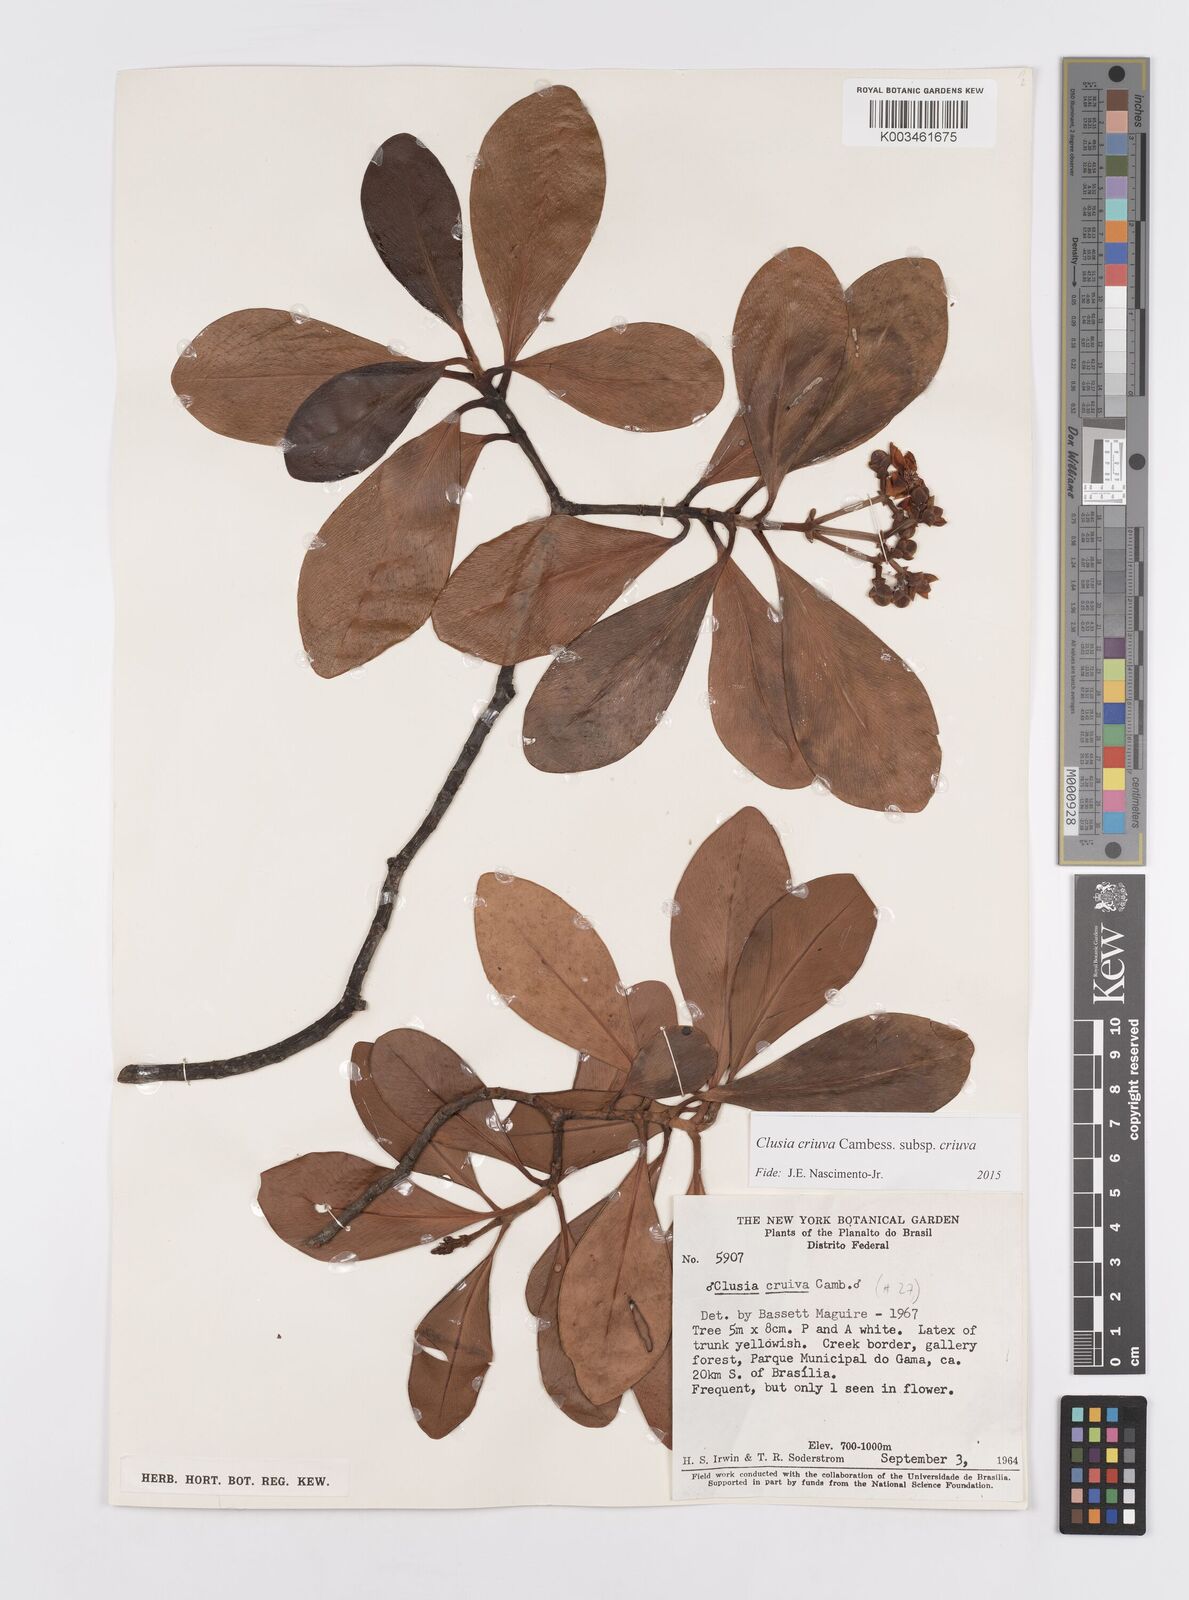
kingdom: Plantae
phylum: Tracheophyta
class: Magnoliopsida
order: Malpighiales
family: Clusiaceae
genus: Clusia
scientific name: Clusia criuva
